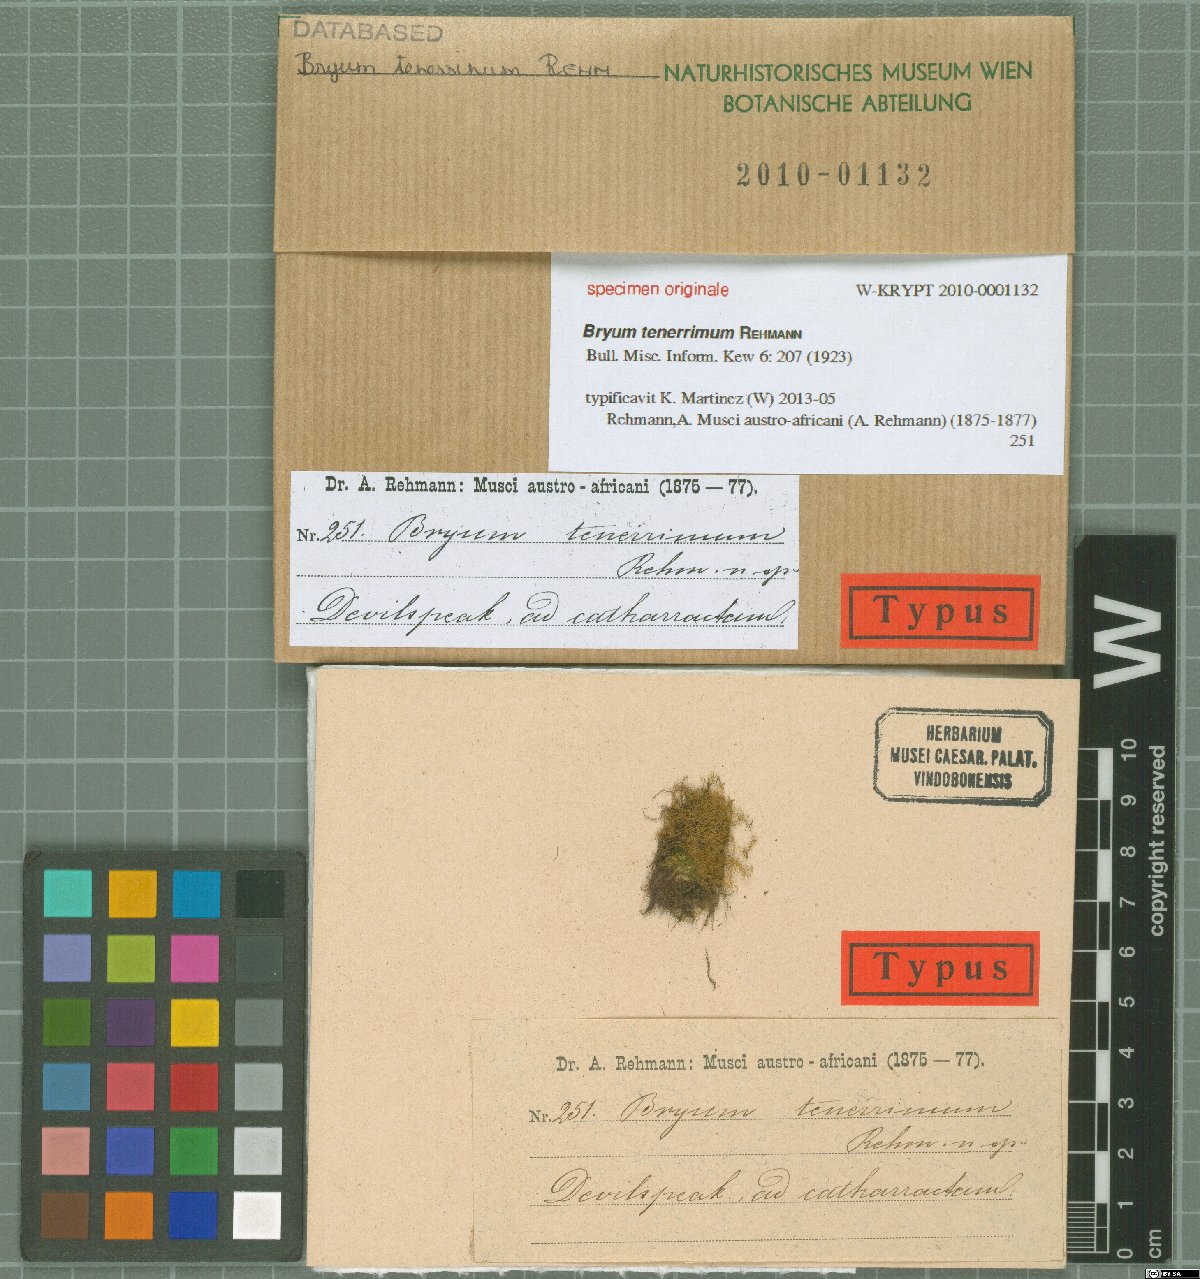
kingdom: Plantae
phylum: Bryophyta
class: Bryopsida
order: Bryales
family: Bryaceae
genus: Bryum
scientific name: Bryum tenerum
